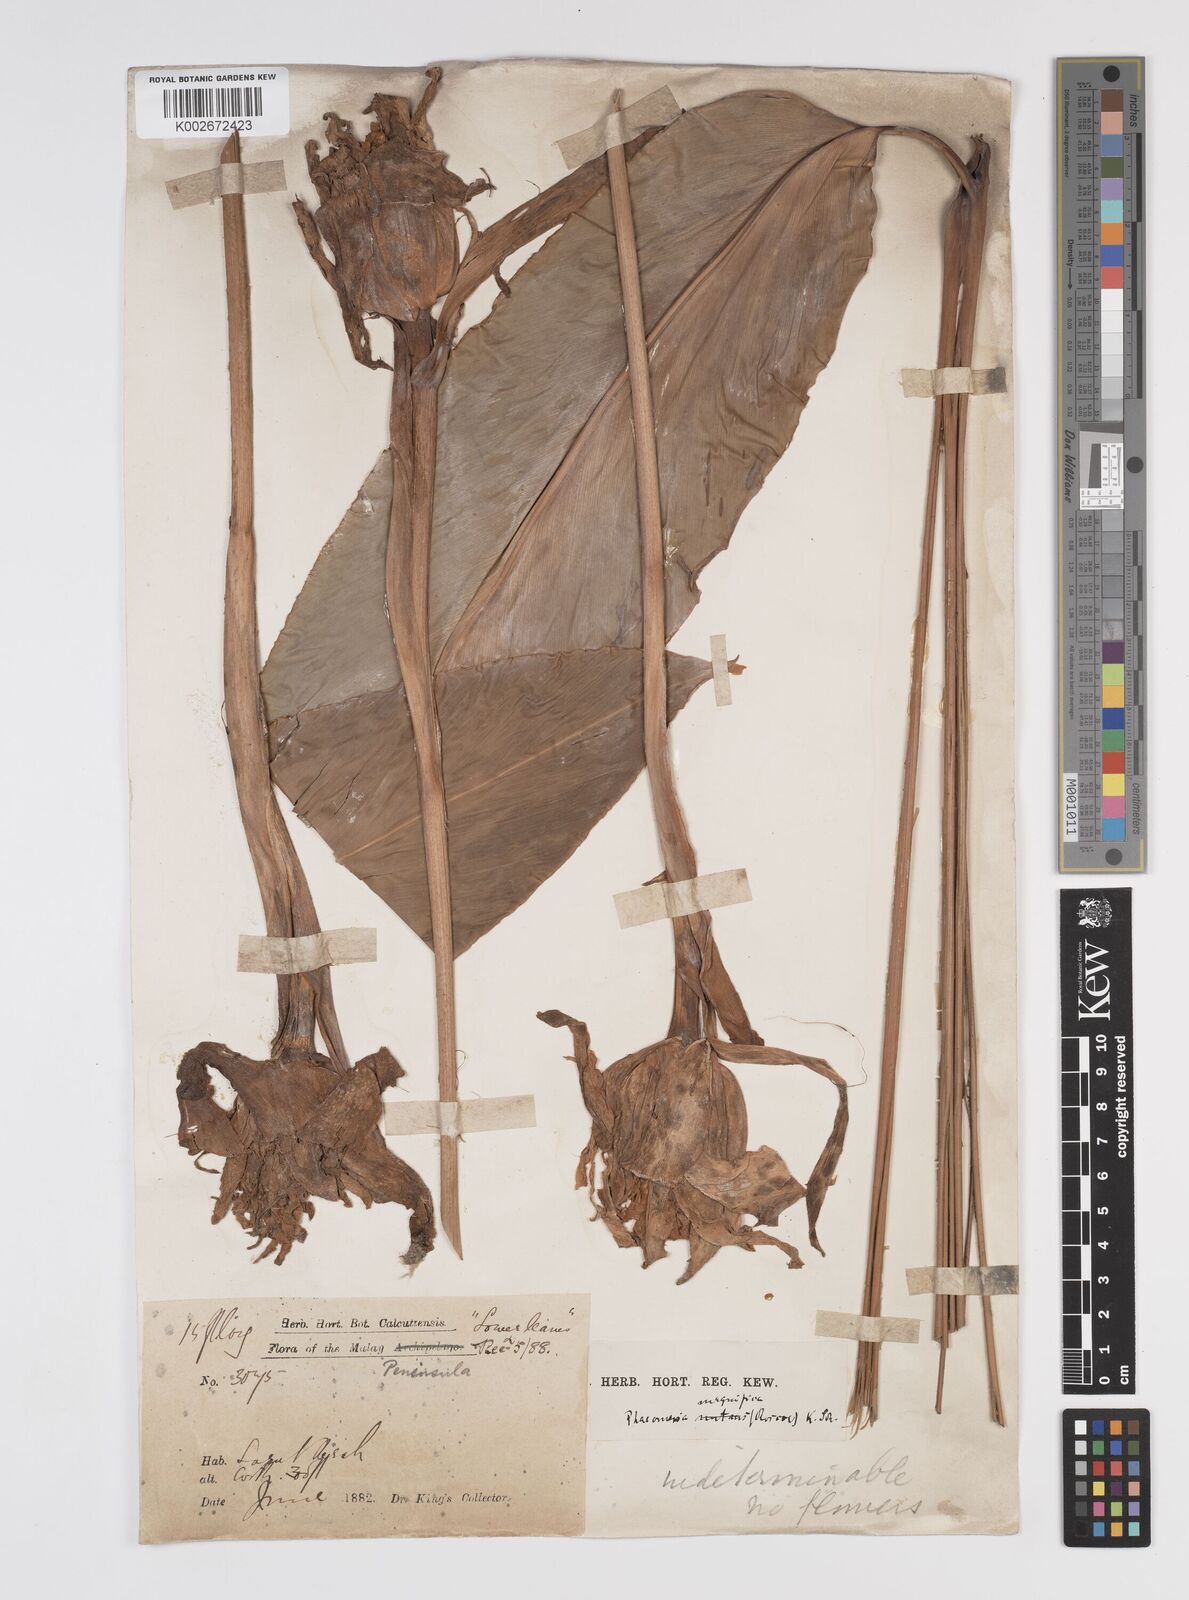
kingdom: Plantae
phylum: Tracheophyta
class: Liliopsida
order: Zingiberales
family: Zingiberaceae
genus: Etlingera
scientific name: Etlingera elatior
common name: Philippine waxflower
